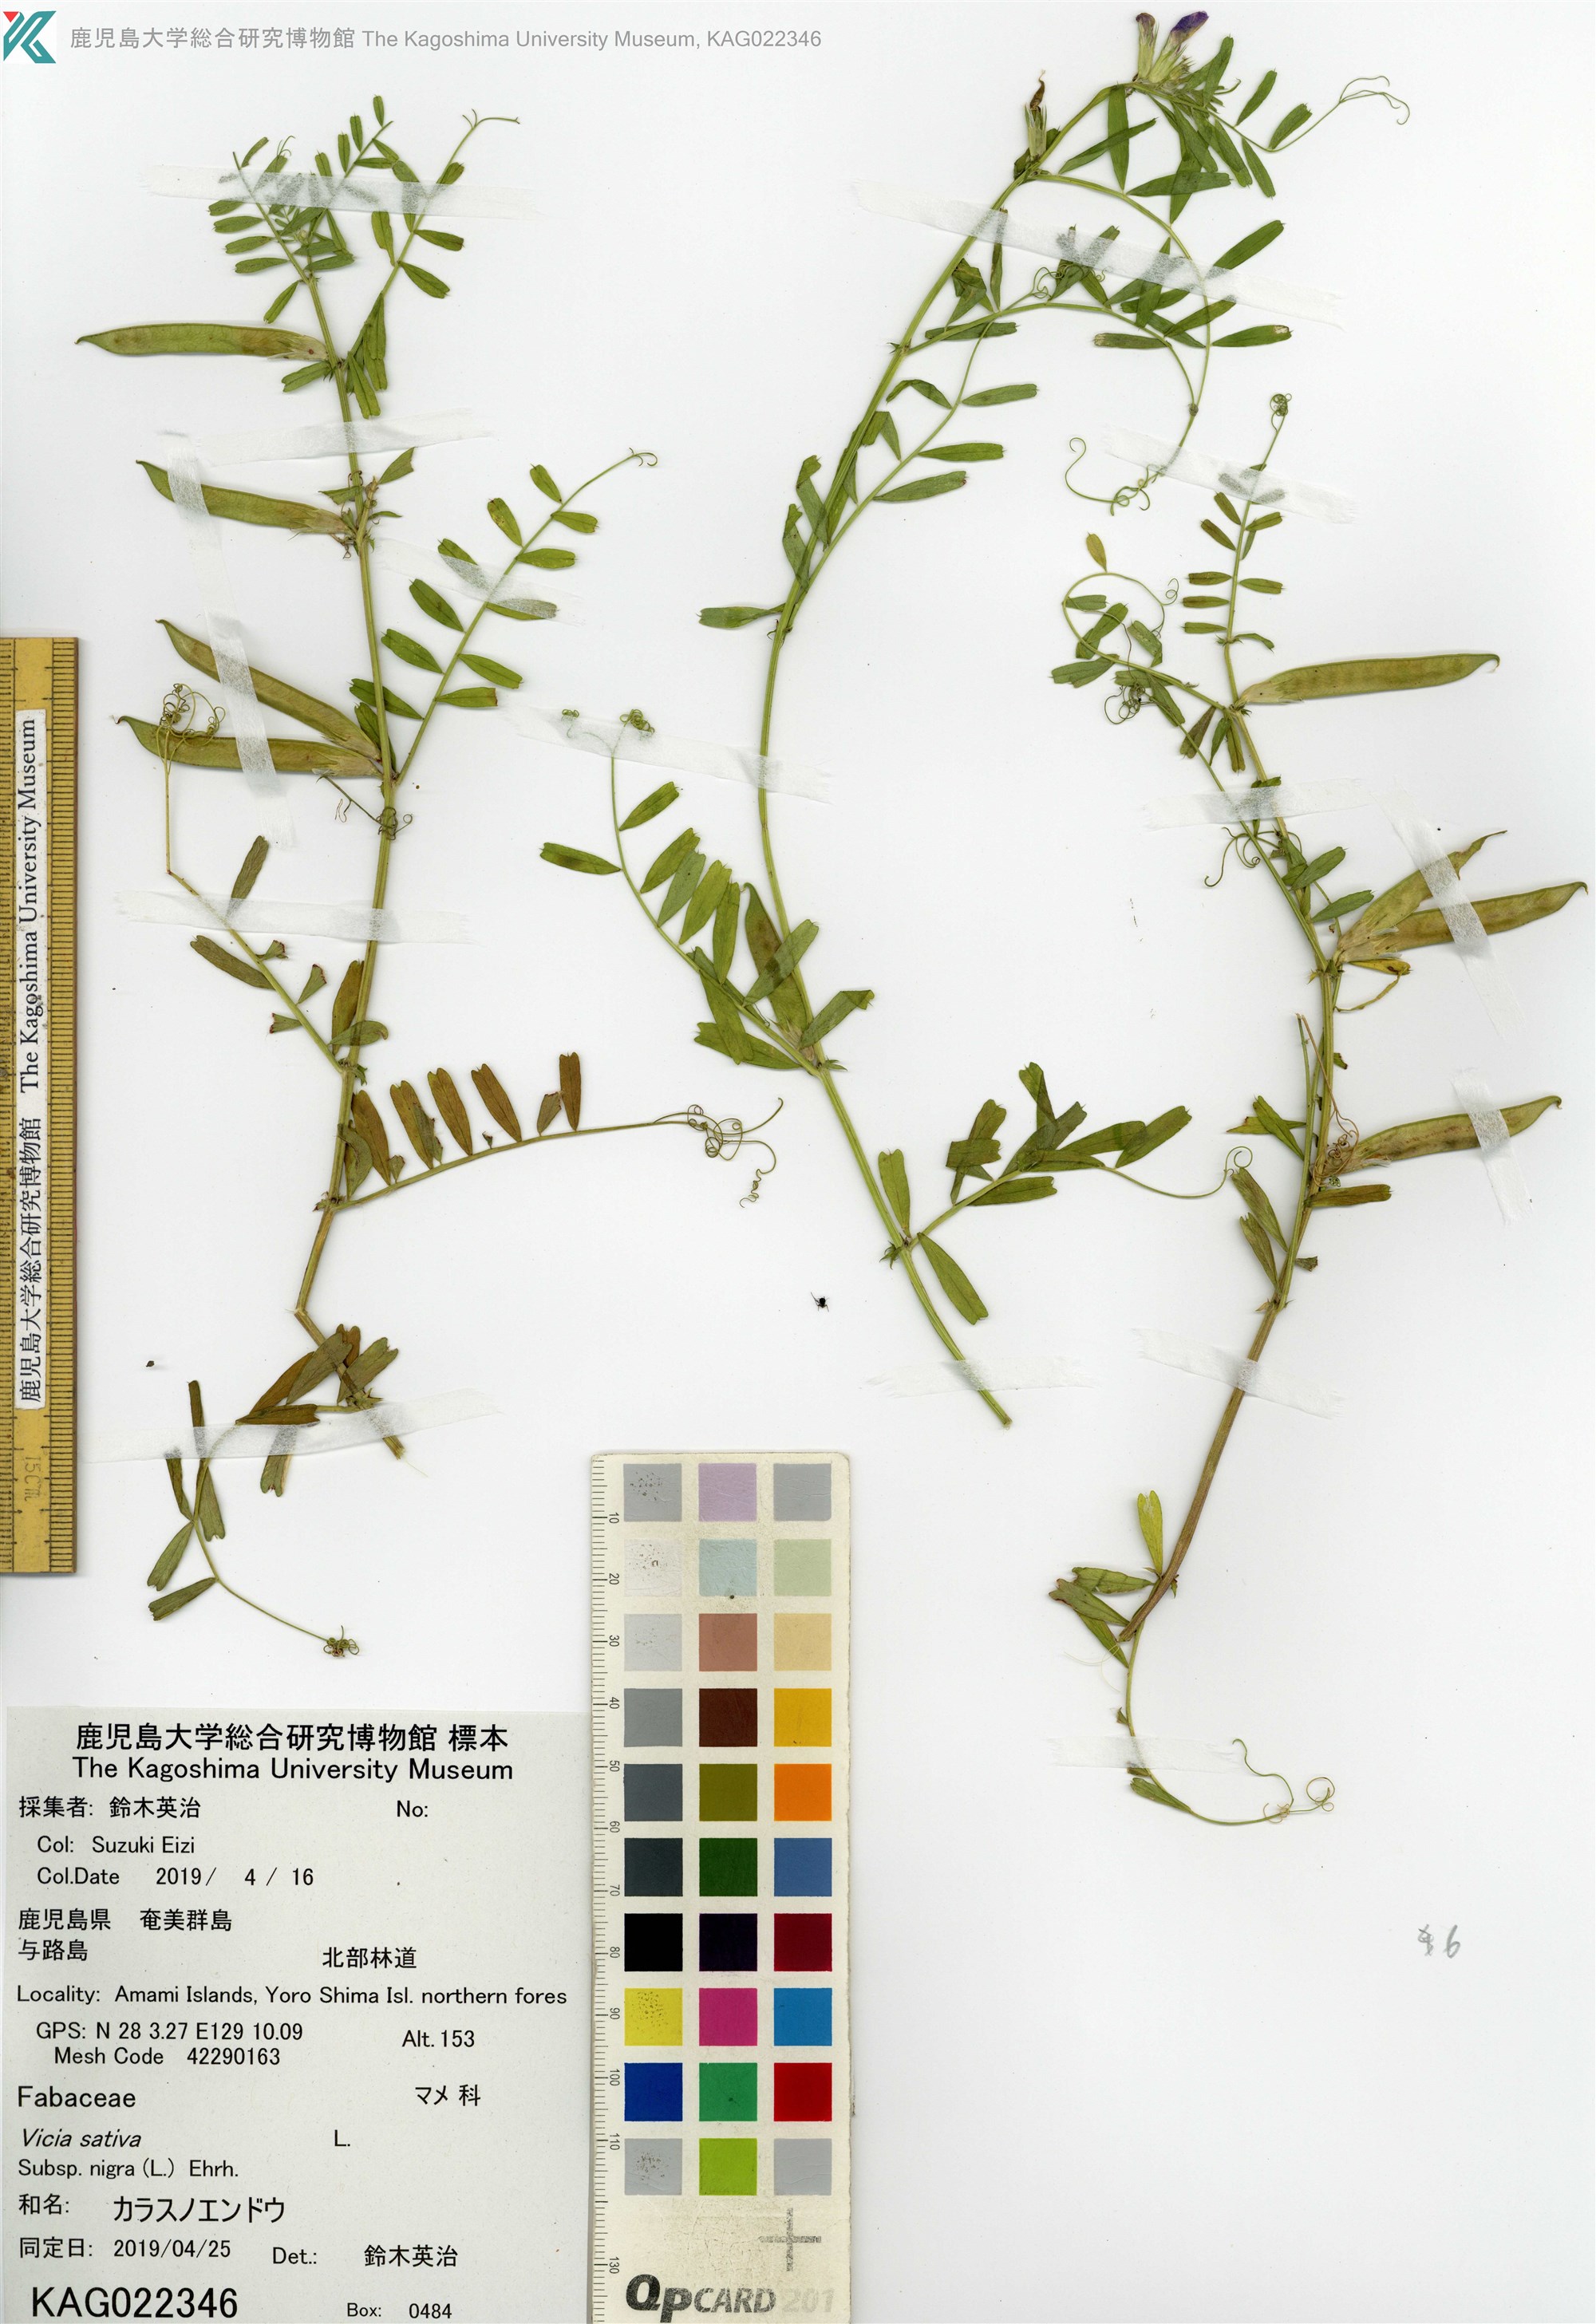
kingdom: Plantae
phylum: Tracheophyta
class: Magnoliopsida
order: Fabales
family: Fabaceae
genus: Vicia
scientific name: Vicia sativa
